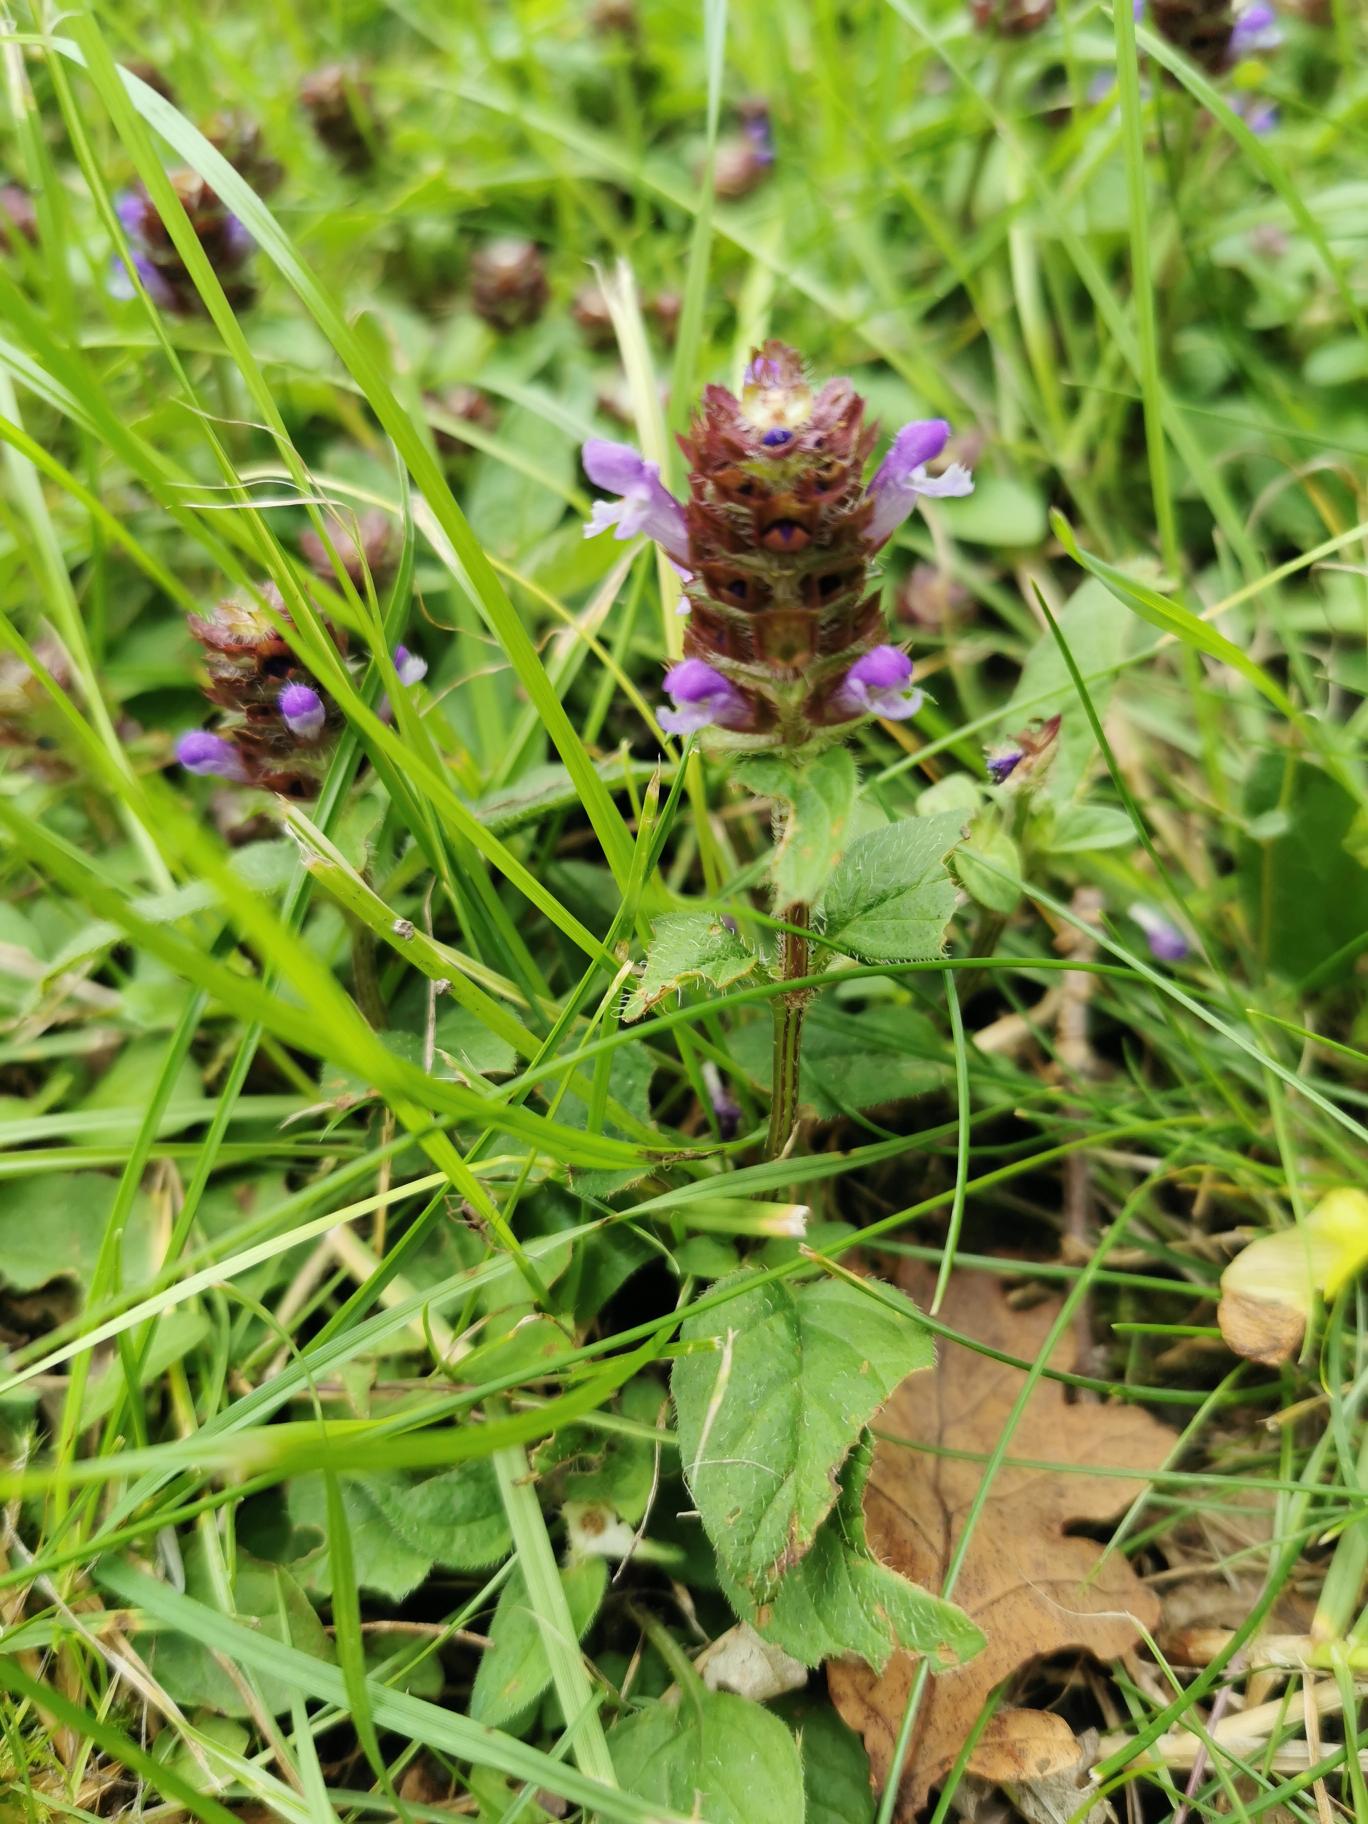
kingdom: Plantae
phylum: Tracheophyta
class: Magnoliopsida
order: Lamiales
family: Lamiaceae
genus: Prunella
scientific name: Prunella vulgaris
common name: Almindelig brunelle
